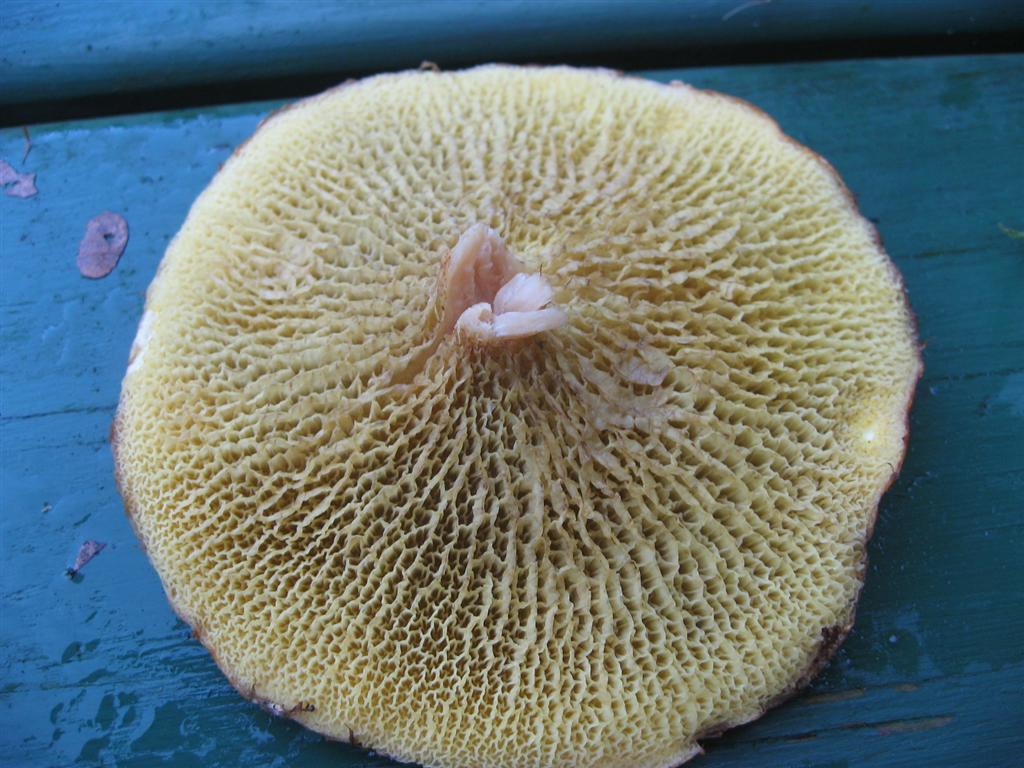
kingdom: Fungi
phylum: Basidiomycota
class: Agaricomycetes
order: Boletales
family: Suillaceae
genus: Suillus
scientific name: Suillus cavipes
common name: hulstokket slimrørhat
